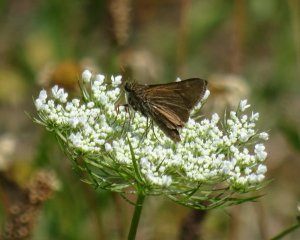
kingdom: Animalia
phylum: Arthropoda
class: Insecta
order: Lepidoptera
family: Hesperiidae
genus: Polites
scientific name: Polites
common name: Crossline Skipper
